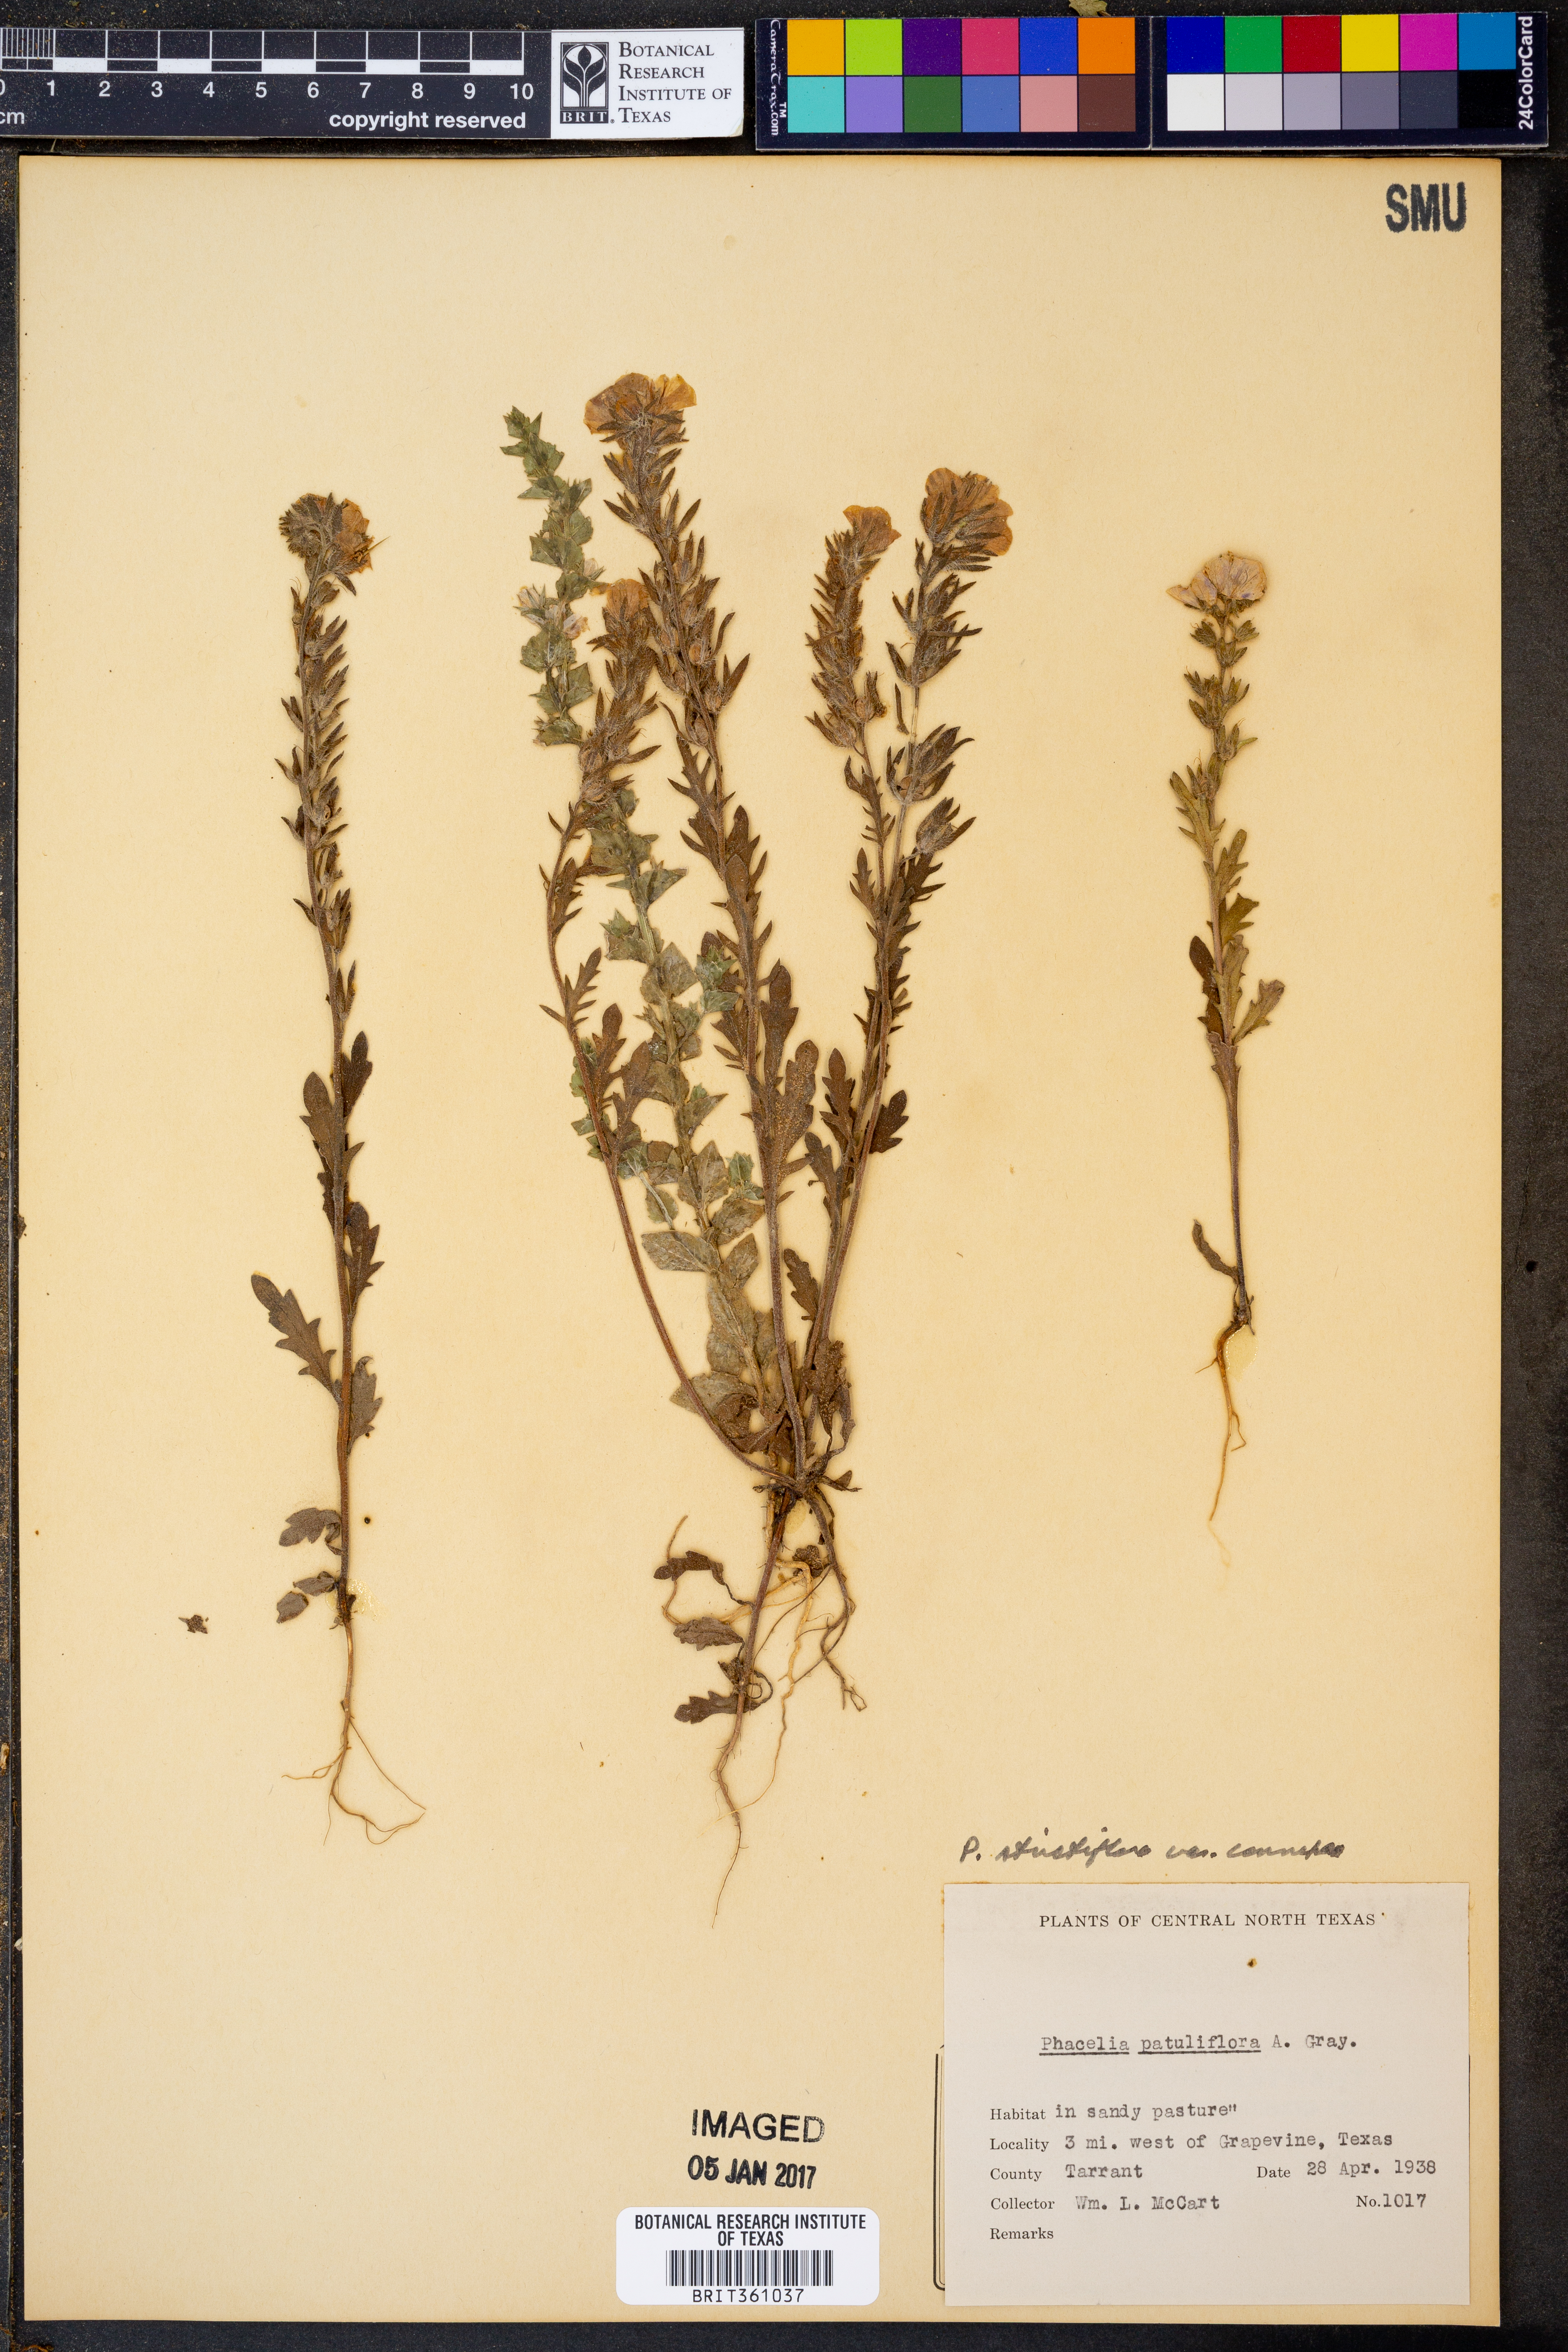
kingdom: Plantae
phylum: Tracheophyta
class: Magnoliopsida
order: Boraginales
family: Hydrophyllaceae
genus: Phacelia
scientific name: Phacelia strictiflora
